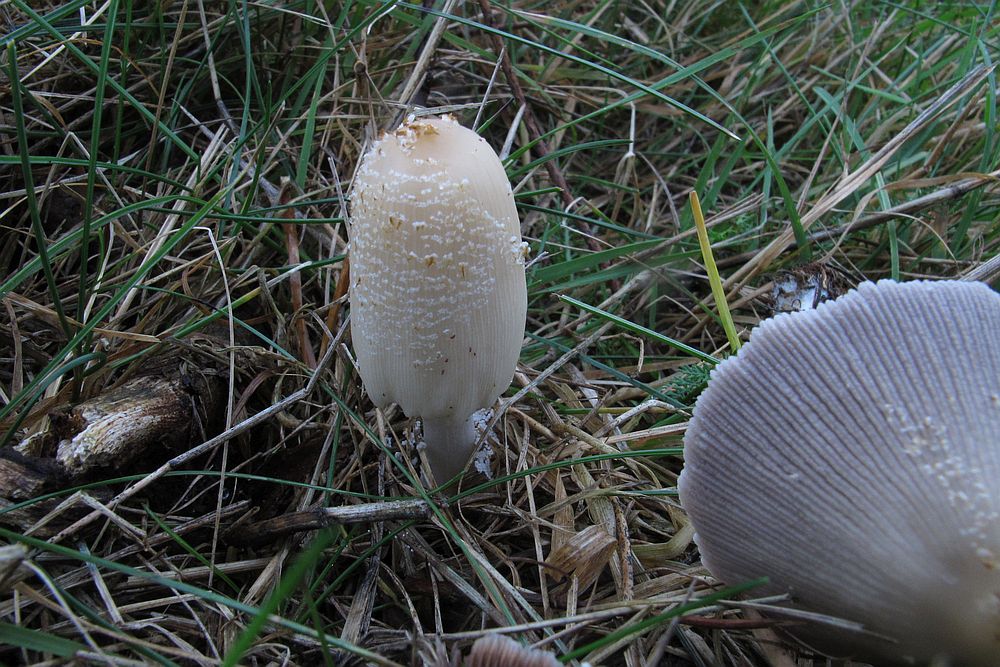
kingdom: Fungi
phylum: Basidiomycota
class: Agaricomycetes
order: Agaricales
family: Psathyrellaceae
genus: Coprinellus
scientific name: Coprinellus domesticus
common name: hus-blækhat
